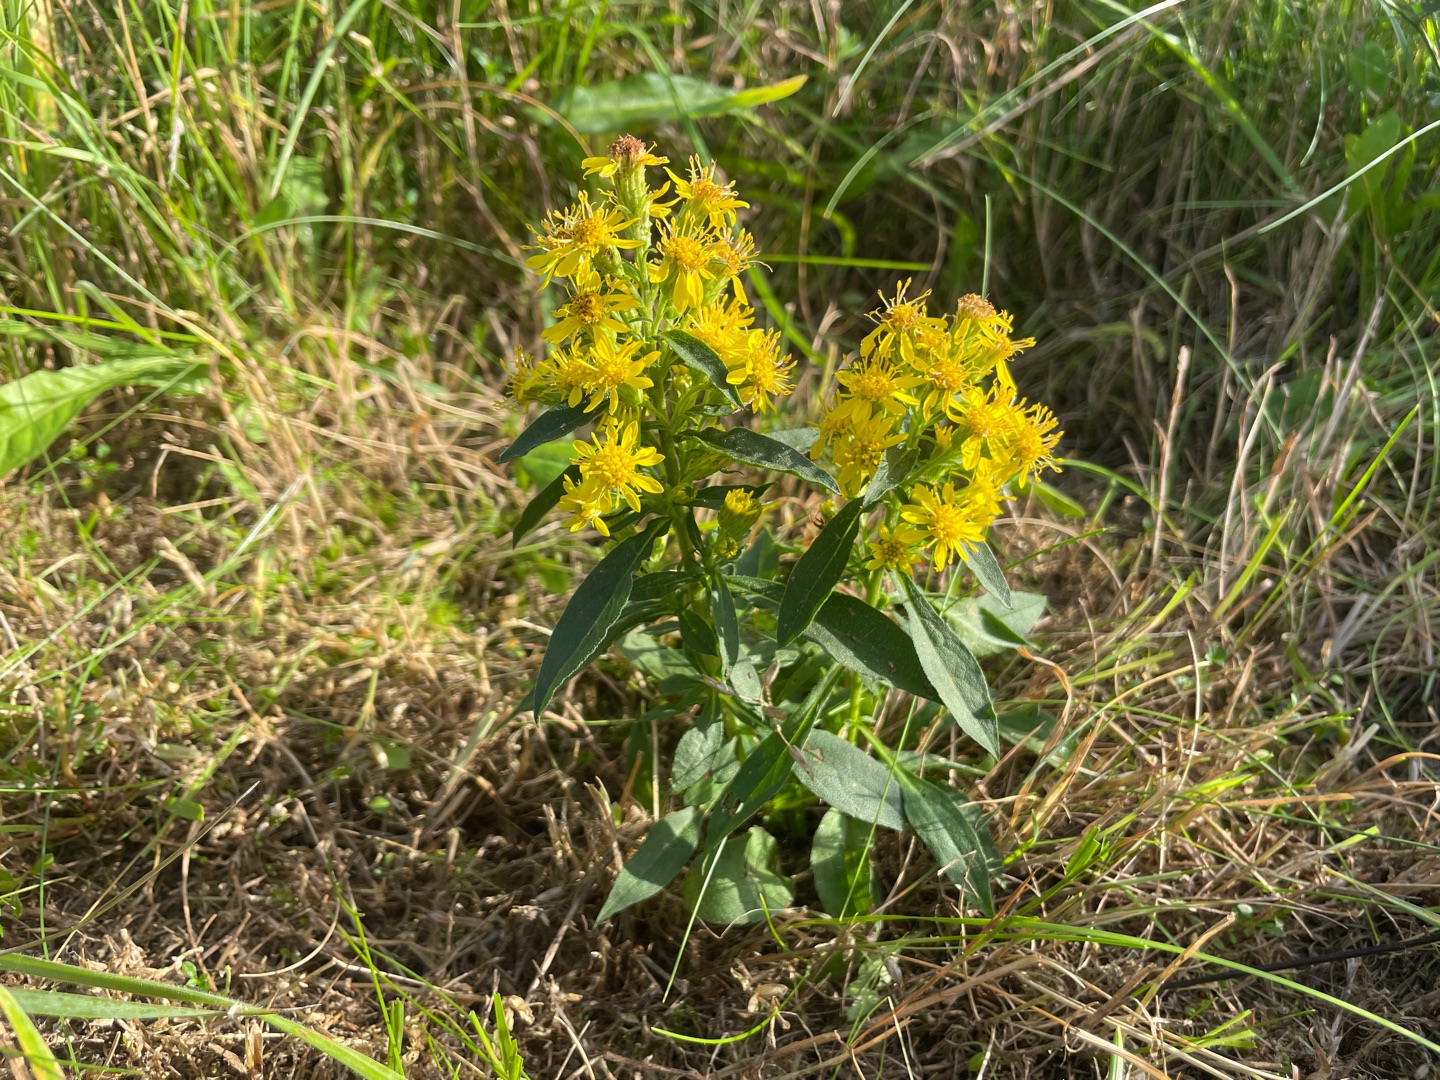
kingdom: Plantae
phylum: Tracheophyta
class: Magnoliopsida
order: Asterales
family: Asteraceae
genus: Solidago
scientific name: Solidago virgaurea
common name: Almindelig gyldenris
